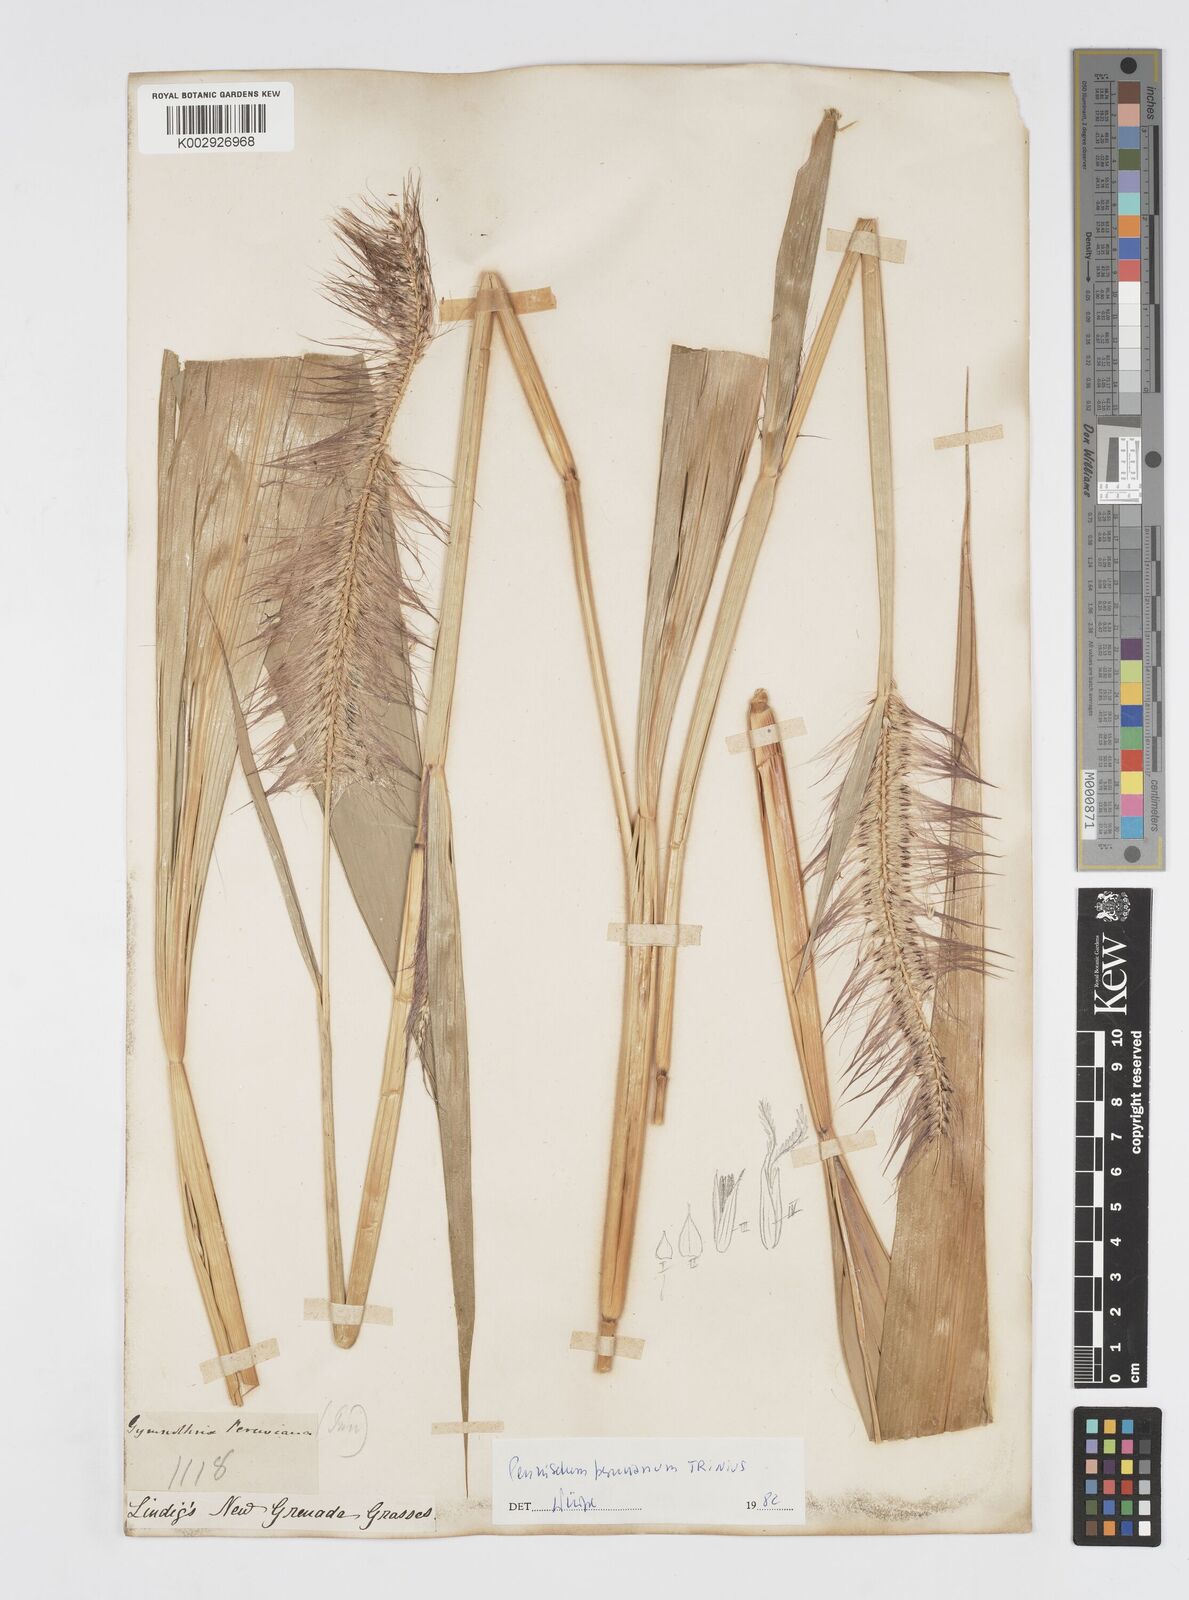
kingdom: Plantae
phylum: Tracheophyta
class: Liliopsida
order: Poales
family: Poaceae
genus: Cenchrus
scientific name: Cenchrus peruvianus
